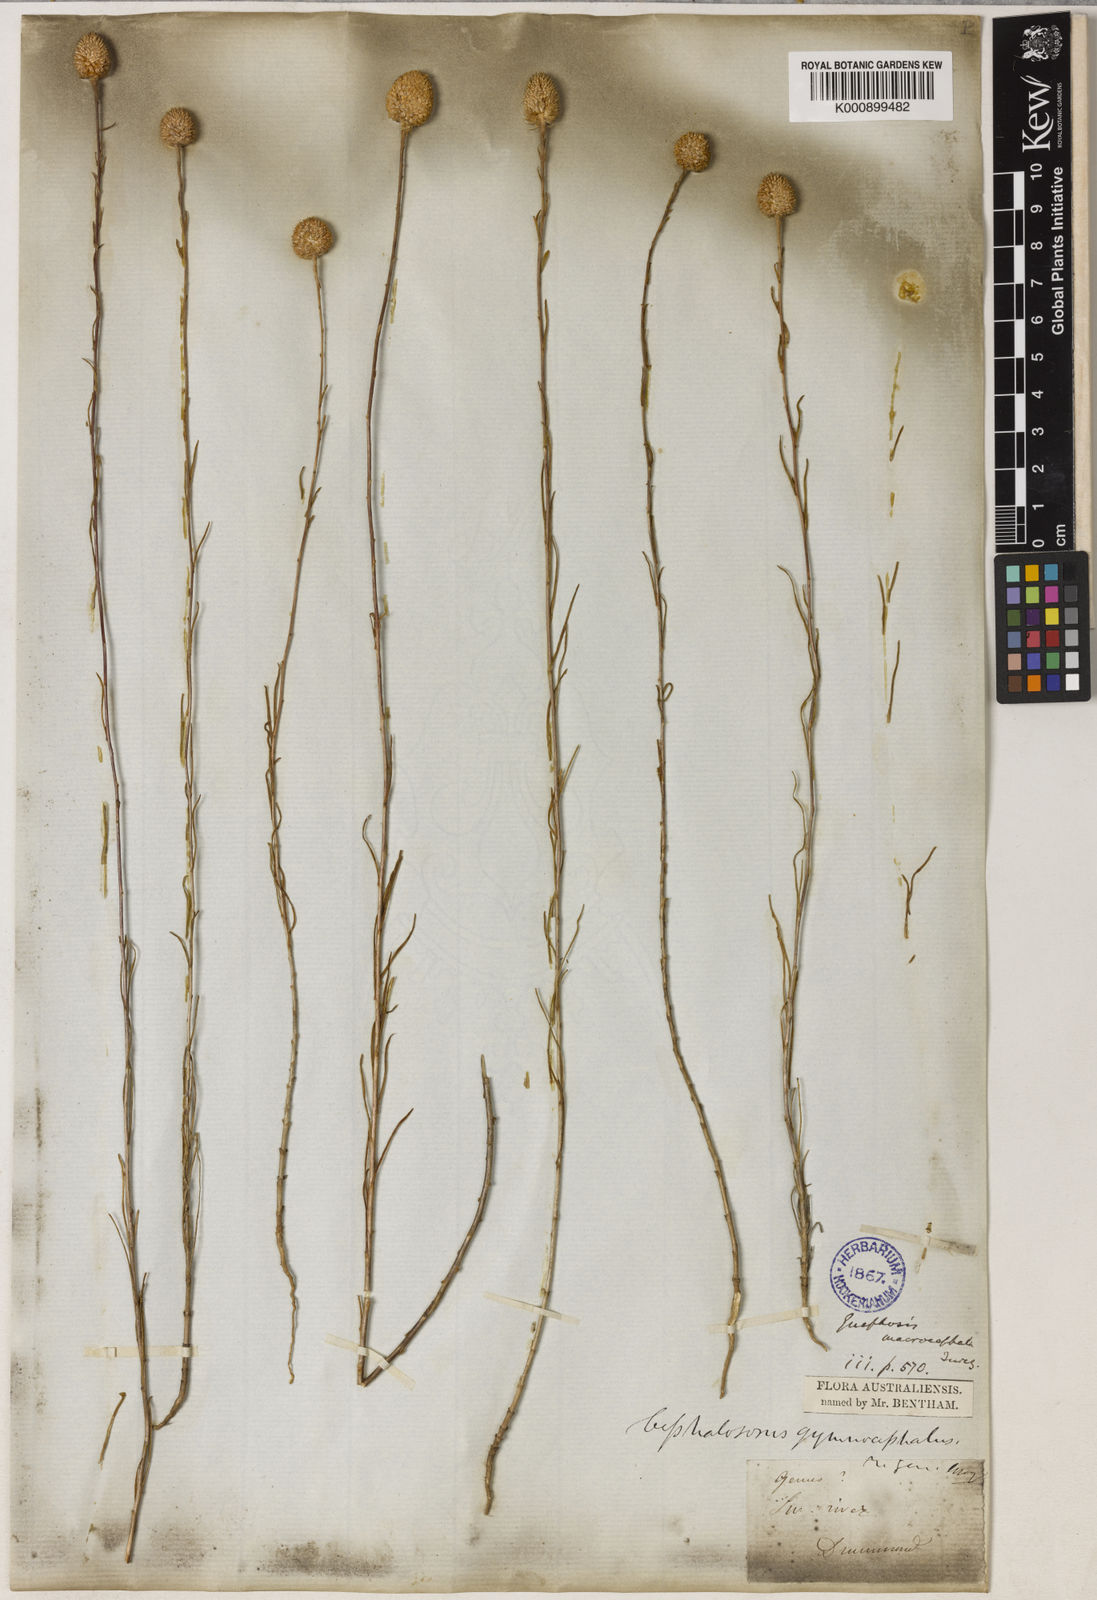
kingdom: Plantae
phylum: Tracheophyta
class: Magnoliopsida
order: Asterales
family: Asteraceae
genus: Gnephosis
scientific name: Gnephosis macrocephala
